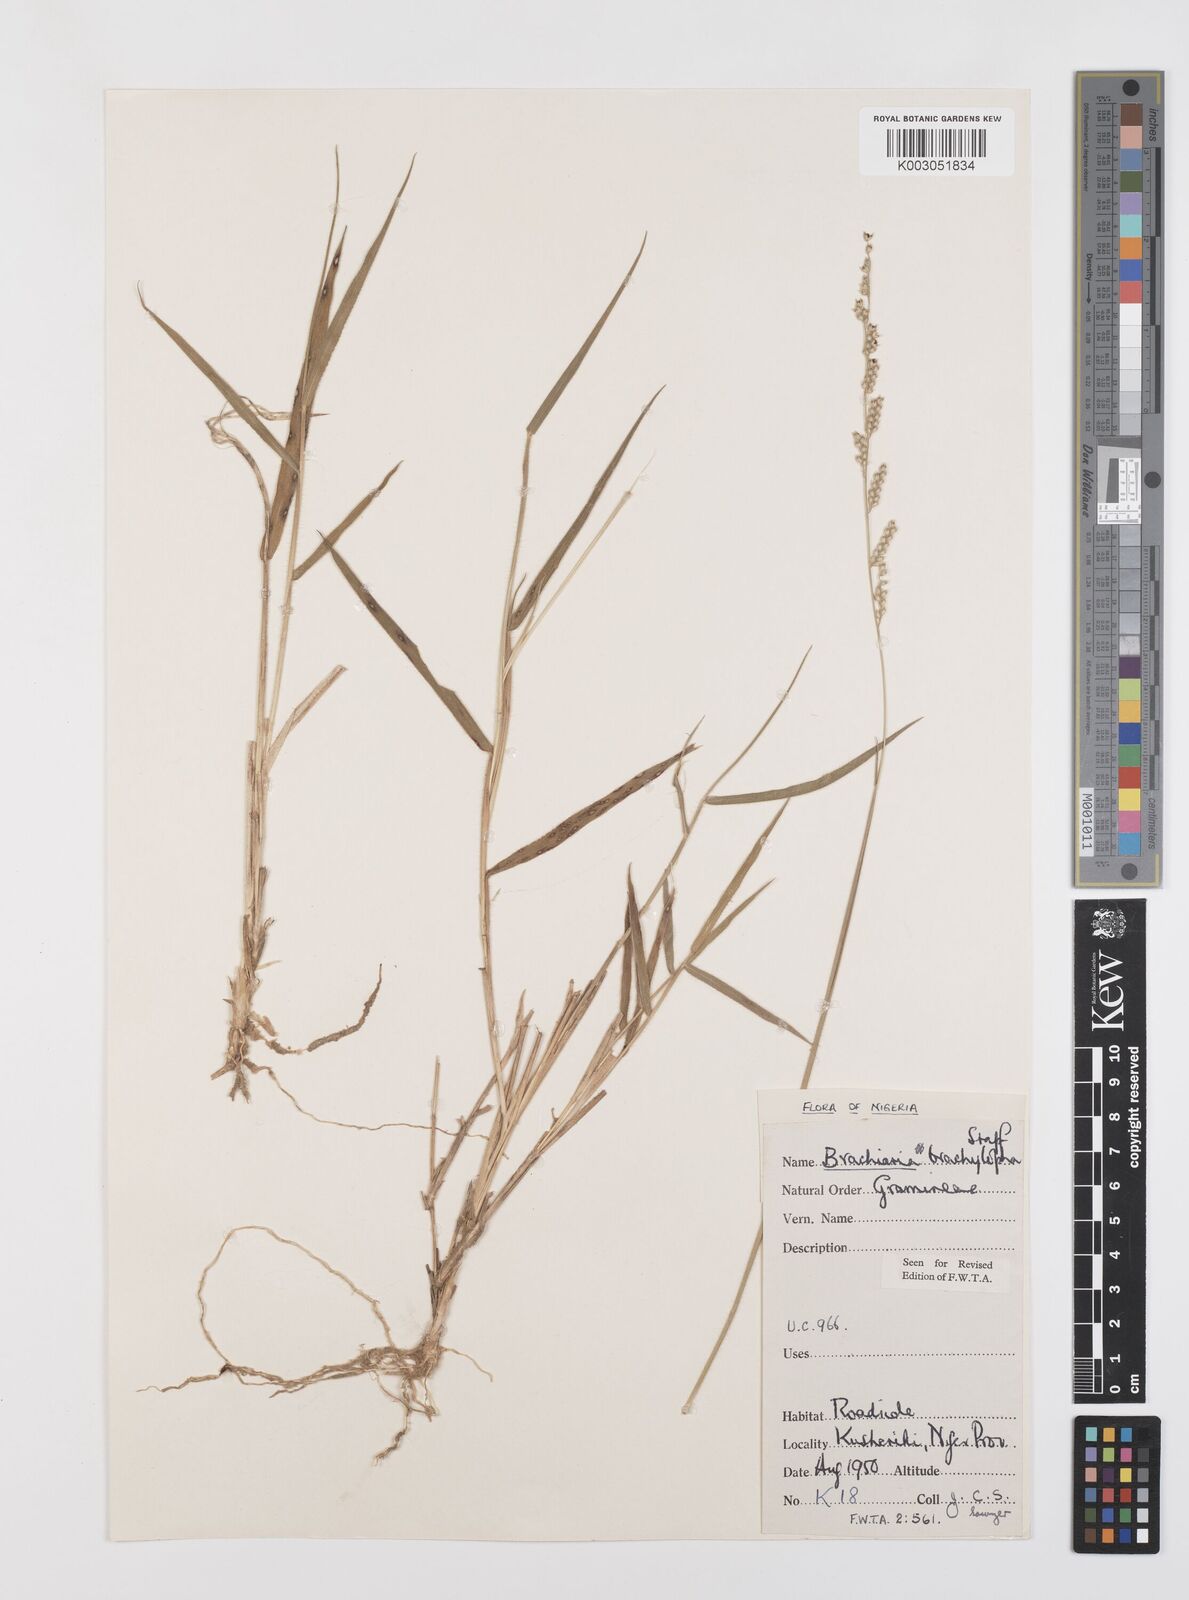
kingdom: Plantae
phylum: Tracheophyta
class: Liliopsida
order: Poales
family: Poaceae
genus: Urochloa
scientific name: Urochloa serrata
